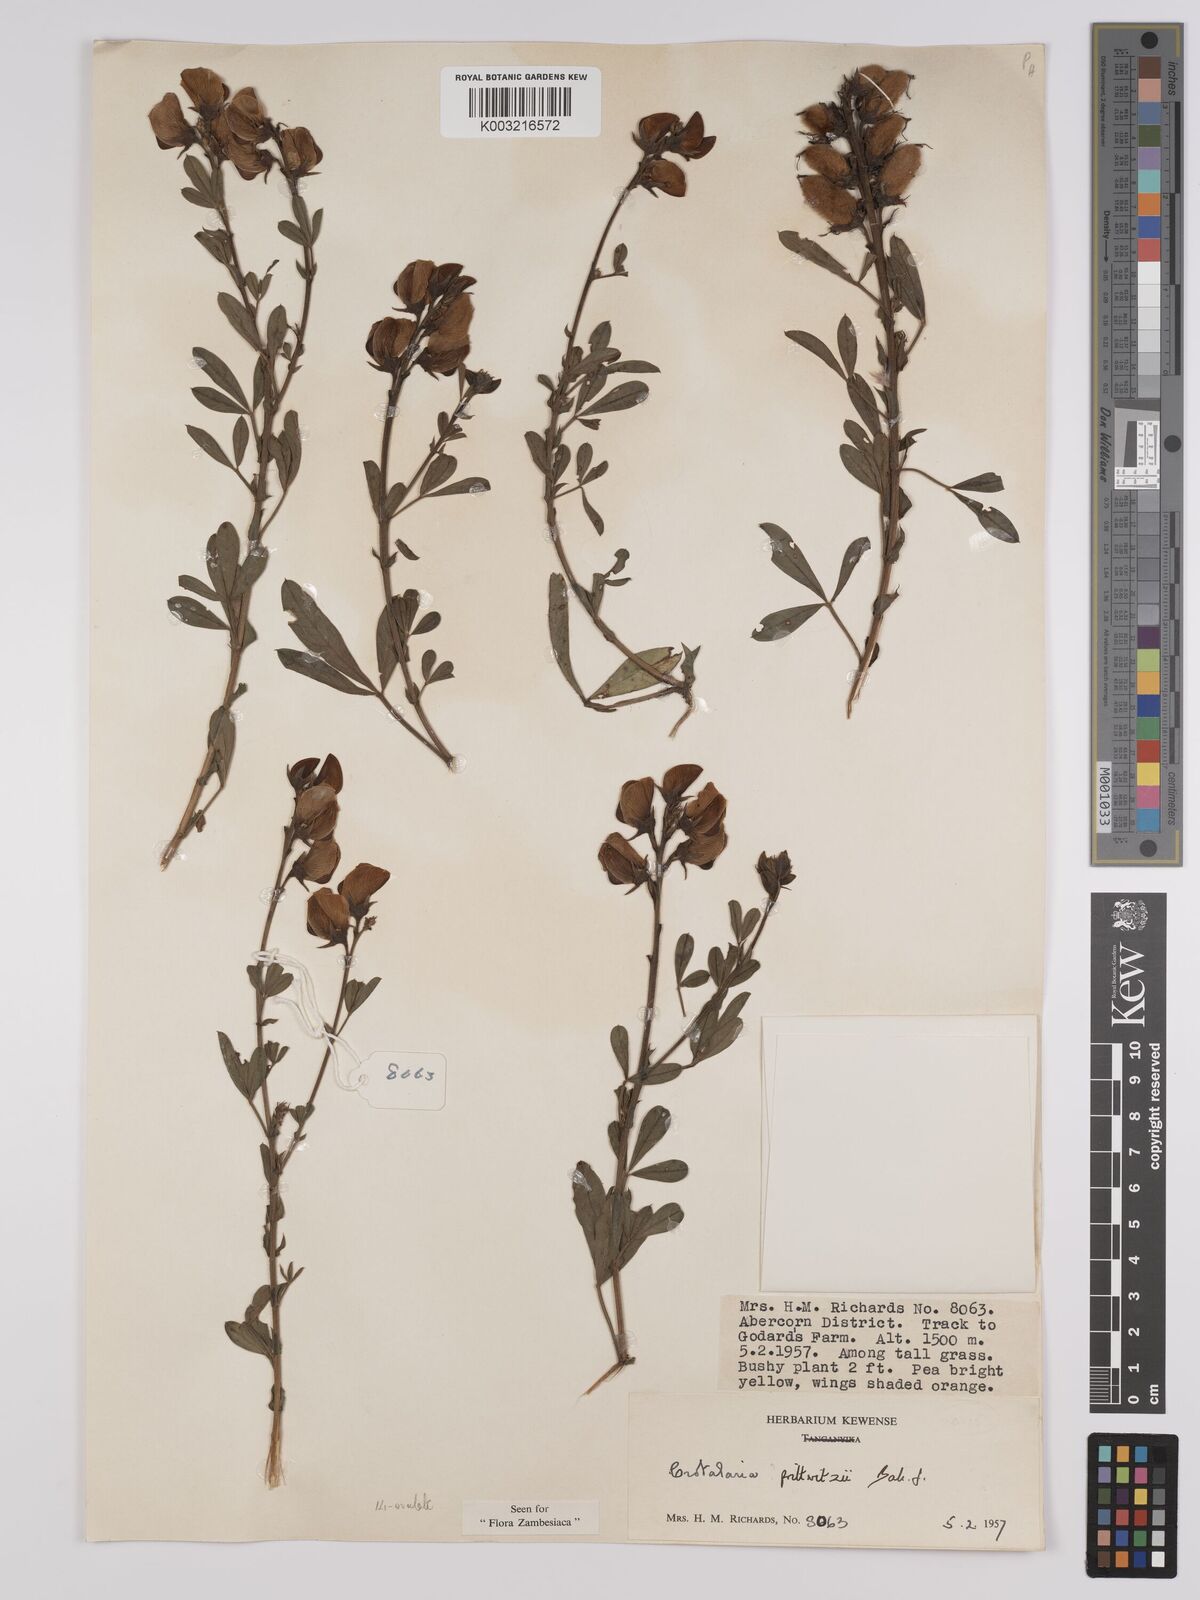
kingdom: Plantae
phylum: Tracheophyta
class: Magnoliopsida
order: Fabales
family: Fabaceae
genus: Crotalaria
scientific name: Crotalaria prittwitzii
